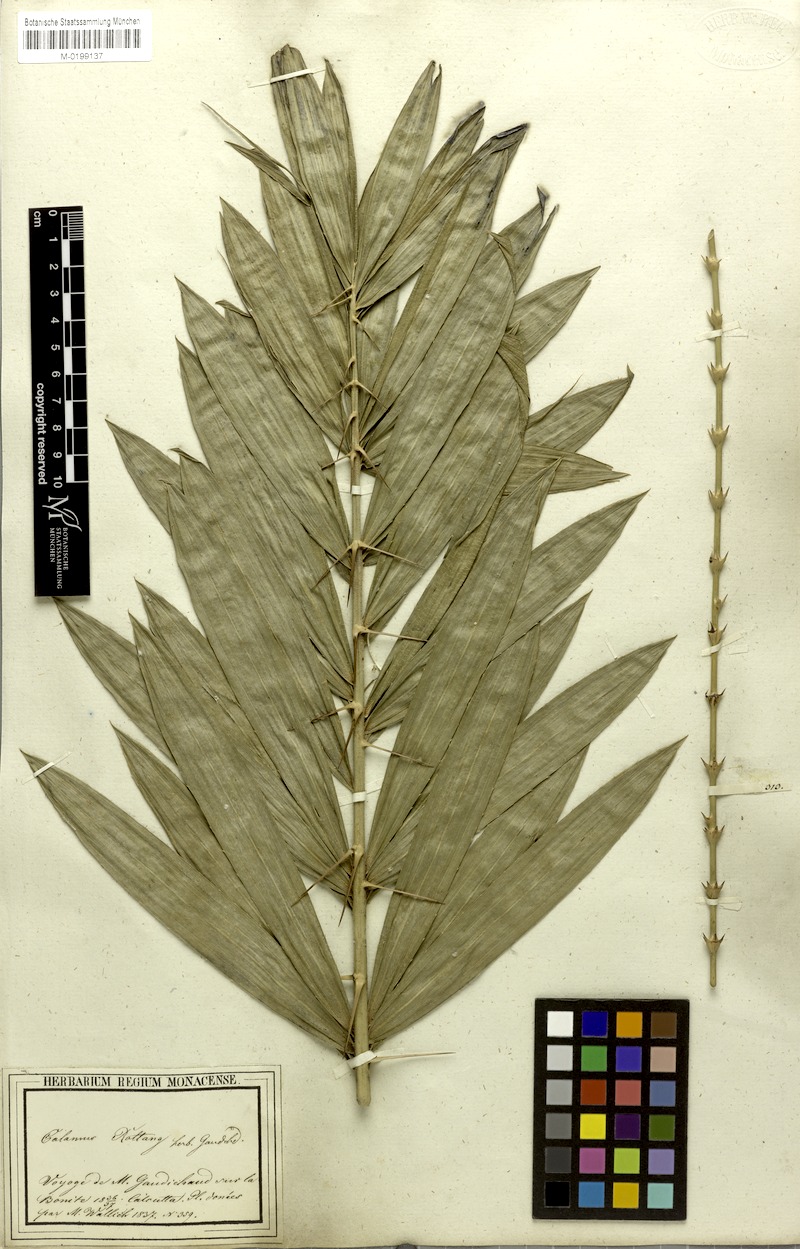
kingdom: Plantae
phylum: Tracheophyta
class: Liliopsida
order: Arecales
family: Arecaceae
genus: Calamus
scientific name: Calamus rotang
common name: Rattan cane
